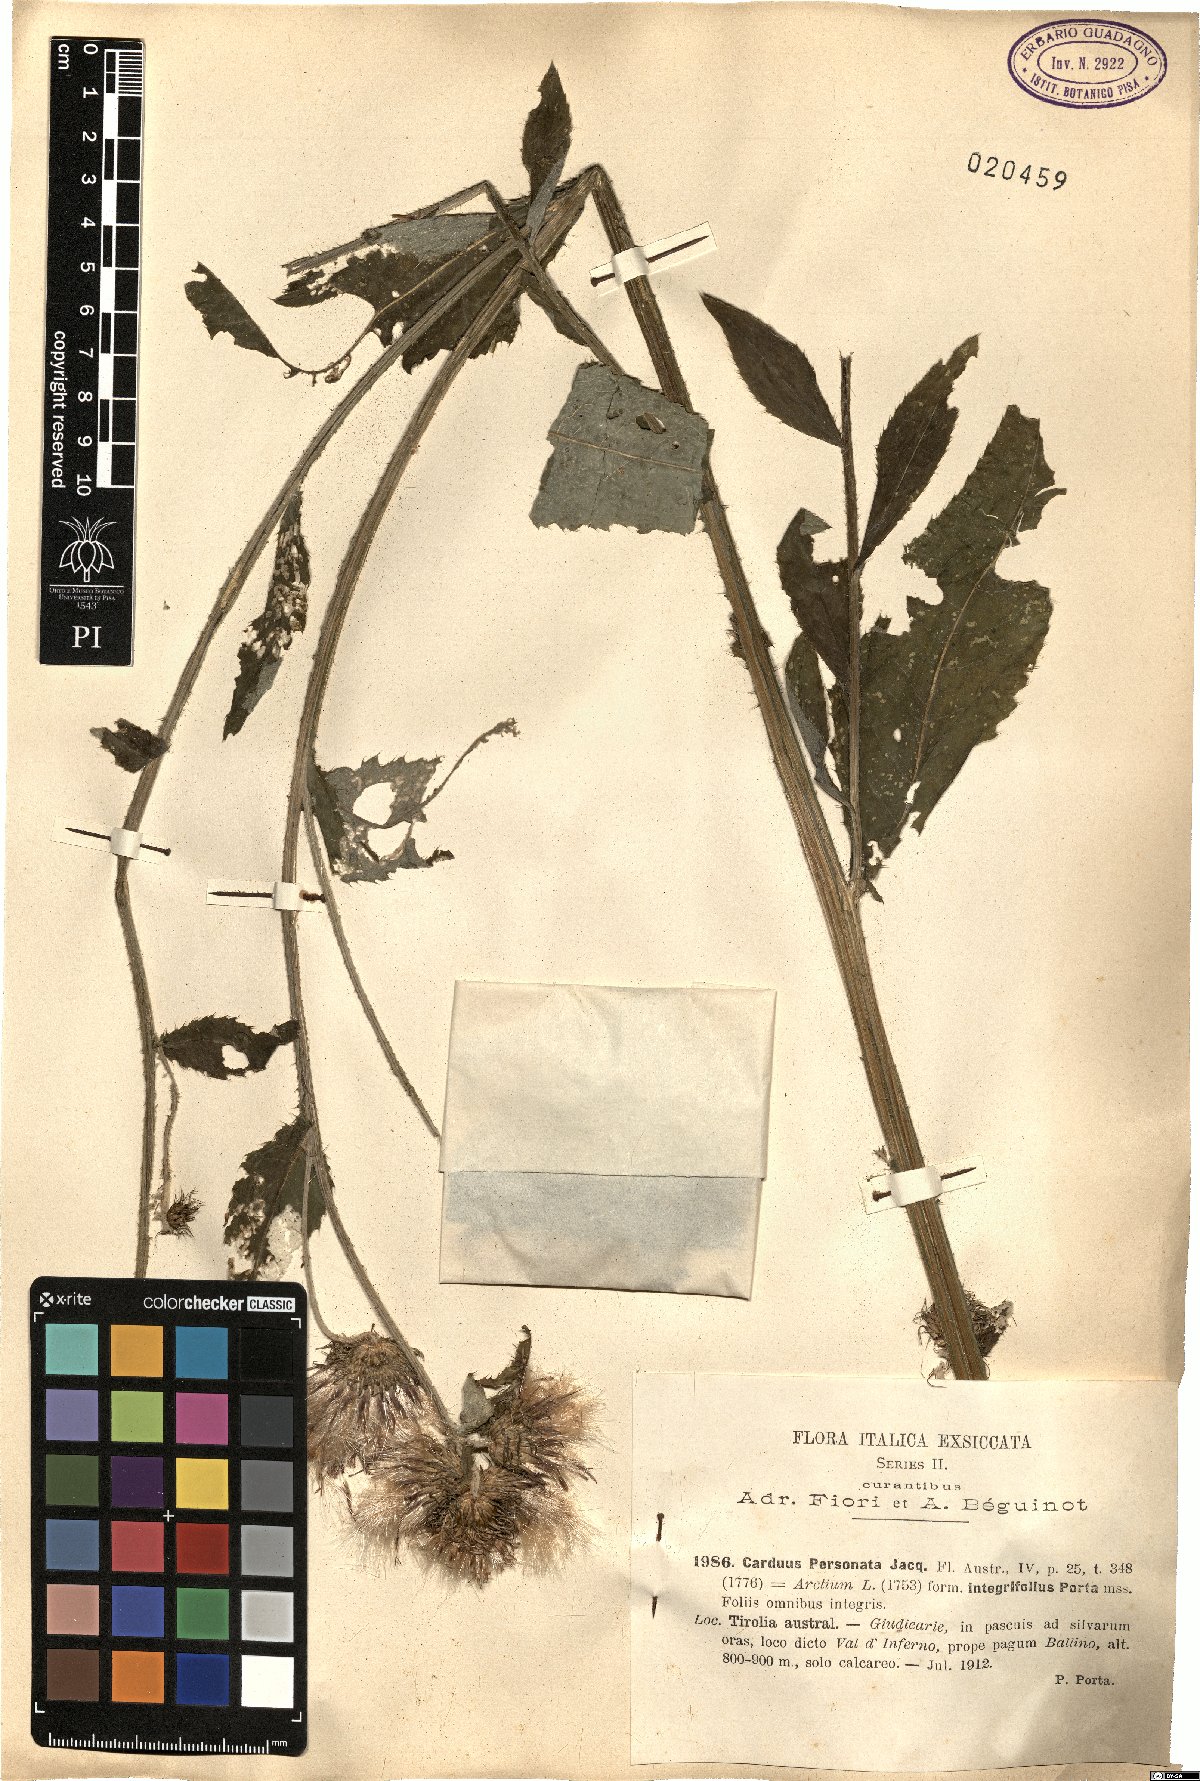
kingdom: Plantae
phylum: Tracheophyta
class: Magnoliopsida
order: Asterales
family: Asteraceae
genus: Carduus
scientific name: Carduus personata
